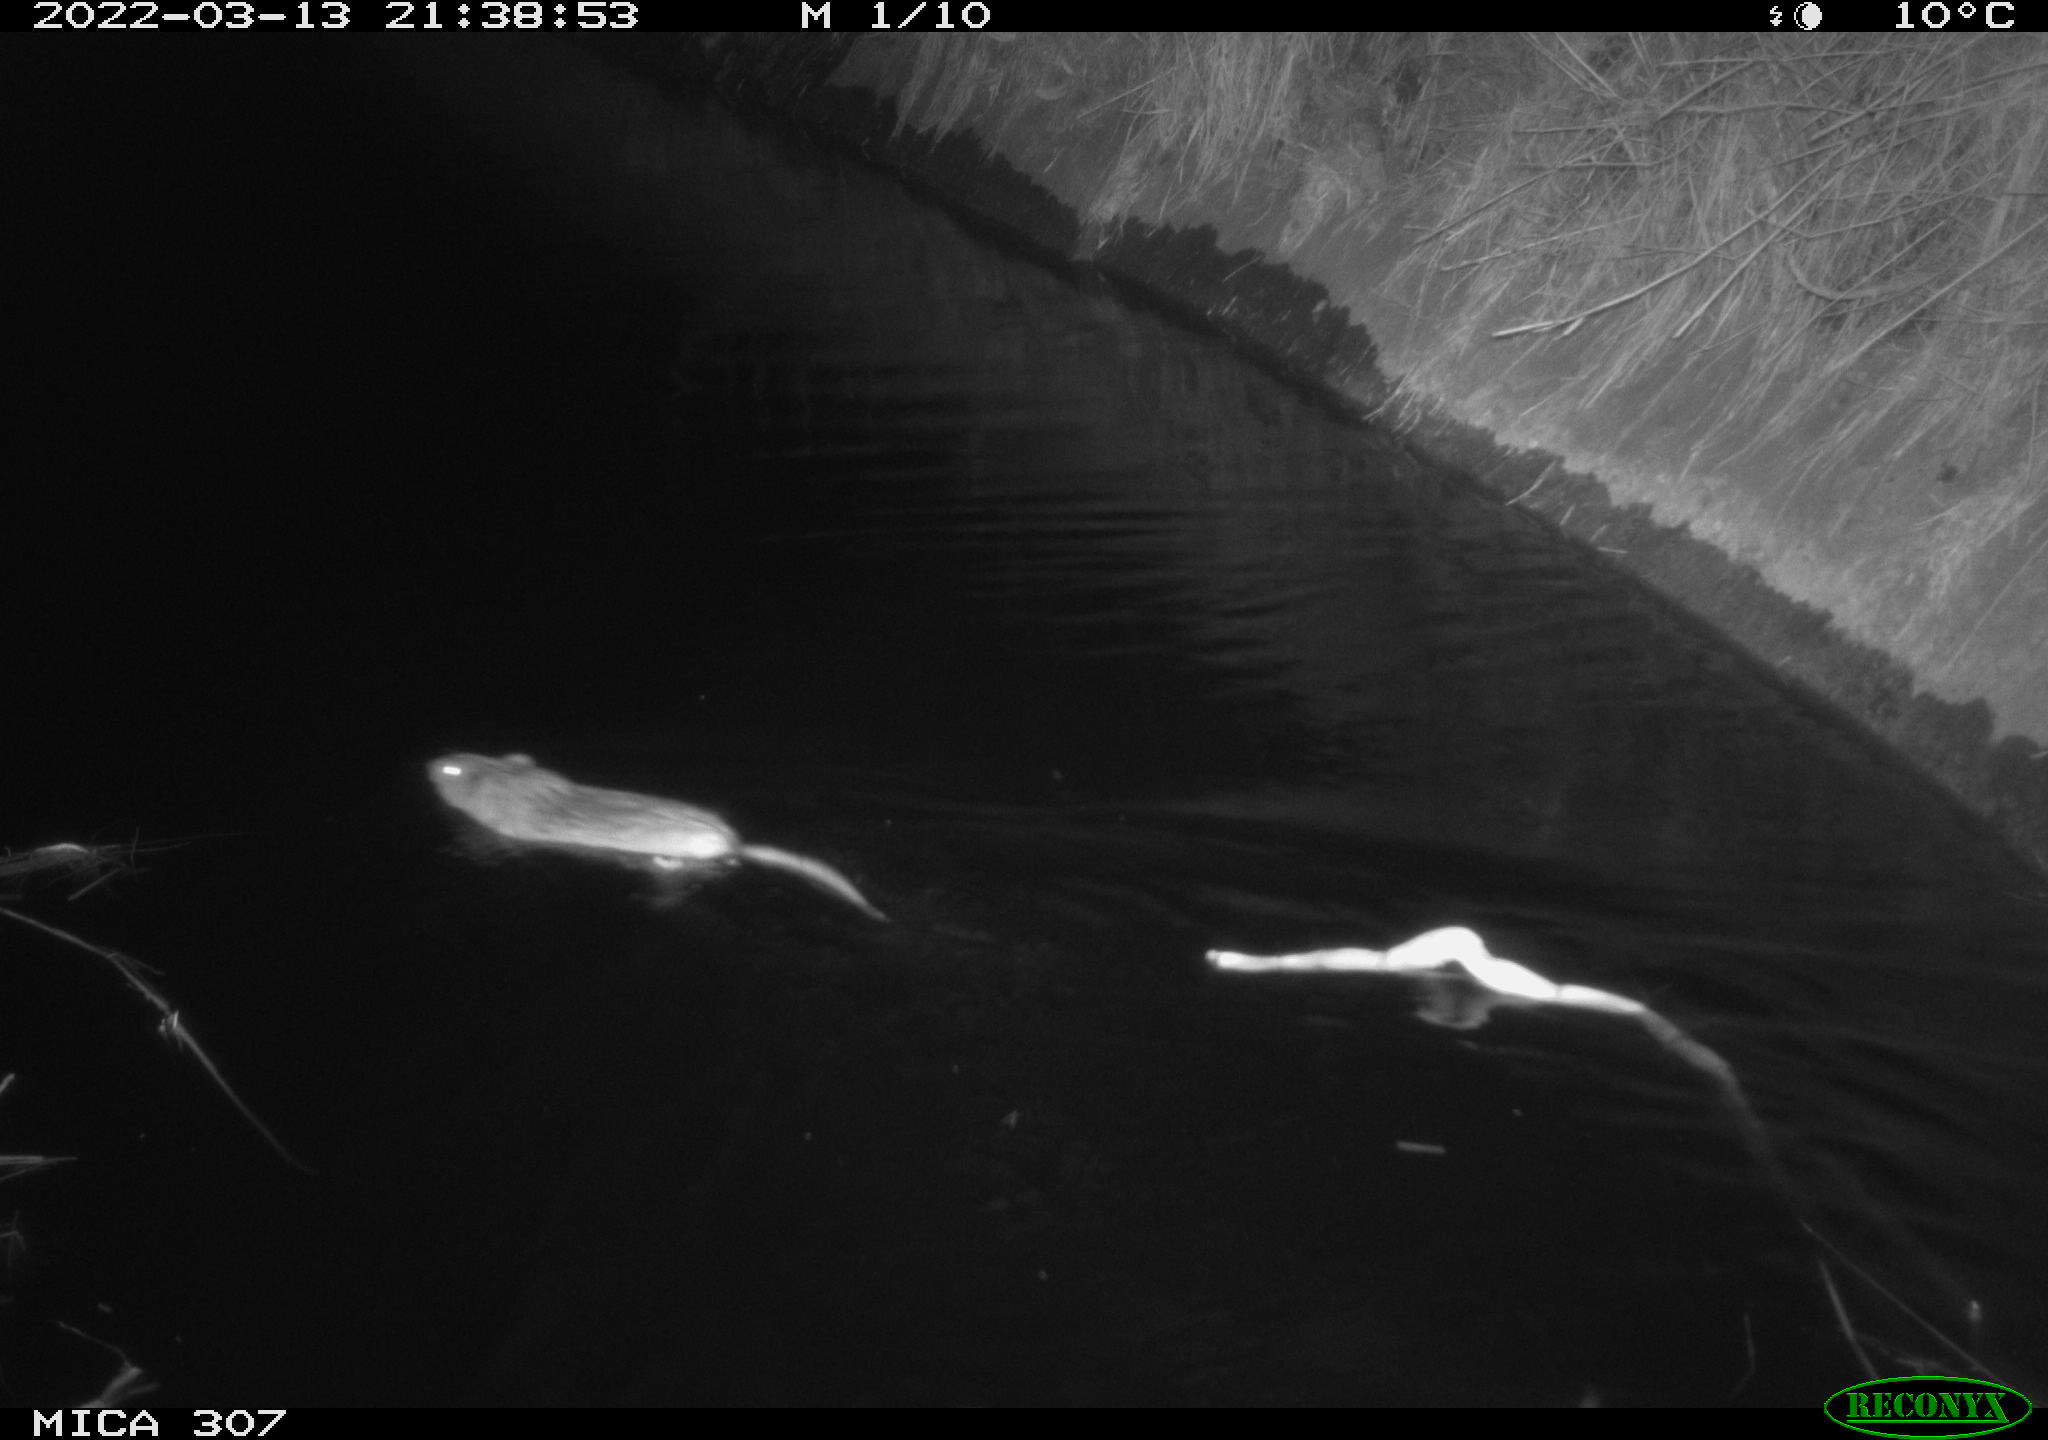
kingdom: Animalia
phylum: Chordata
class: Mammalia
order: Rodentia
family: Cricetidae
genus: Ondatra
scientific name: Ondatra zibethicus
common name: Muskrat
